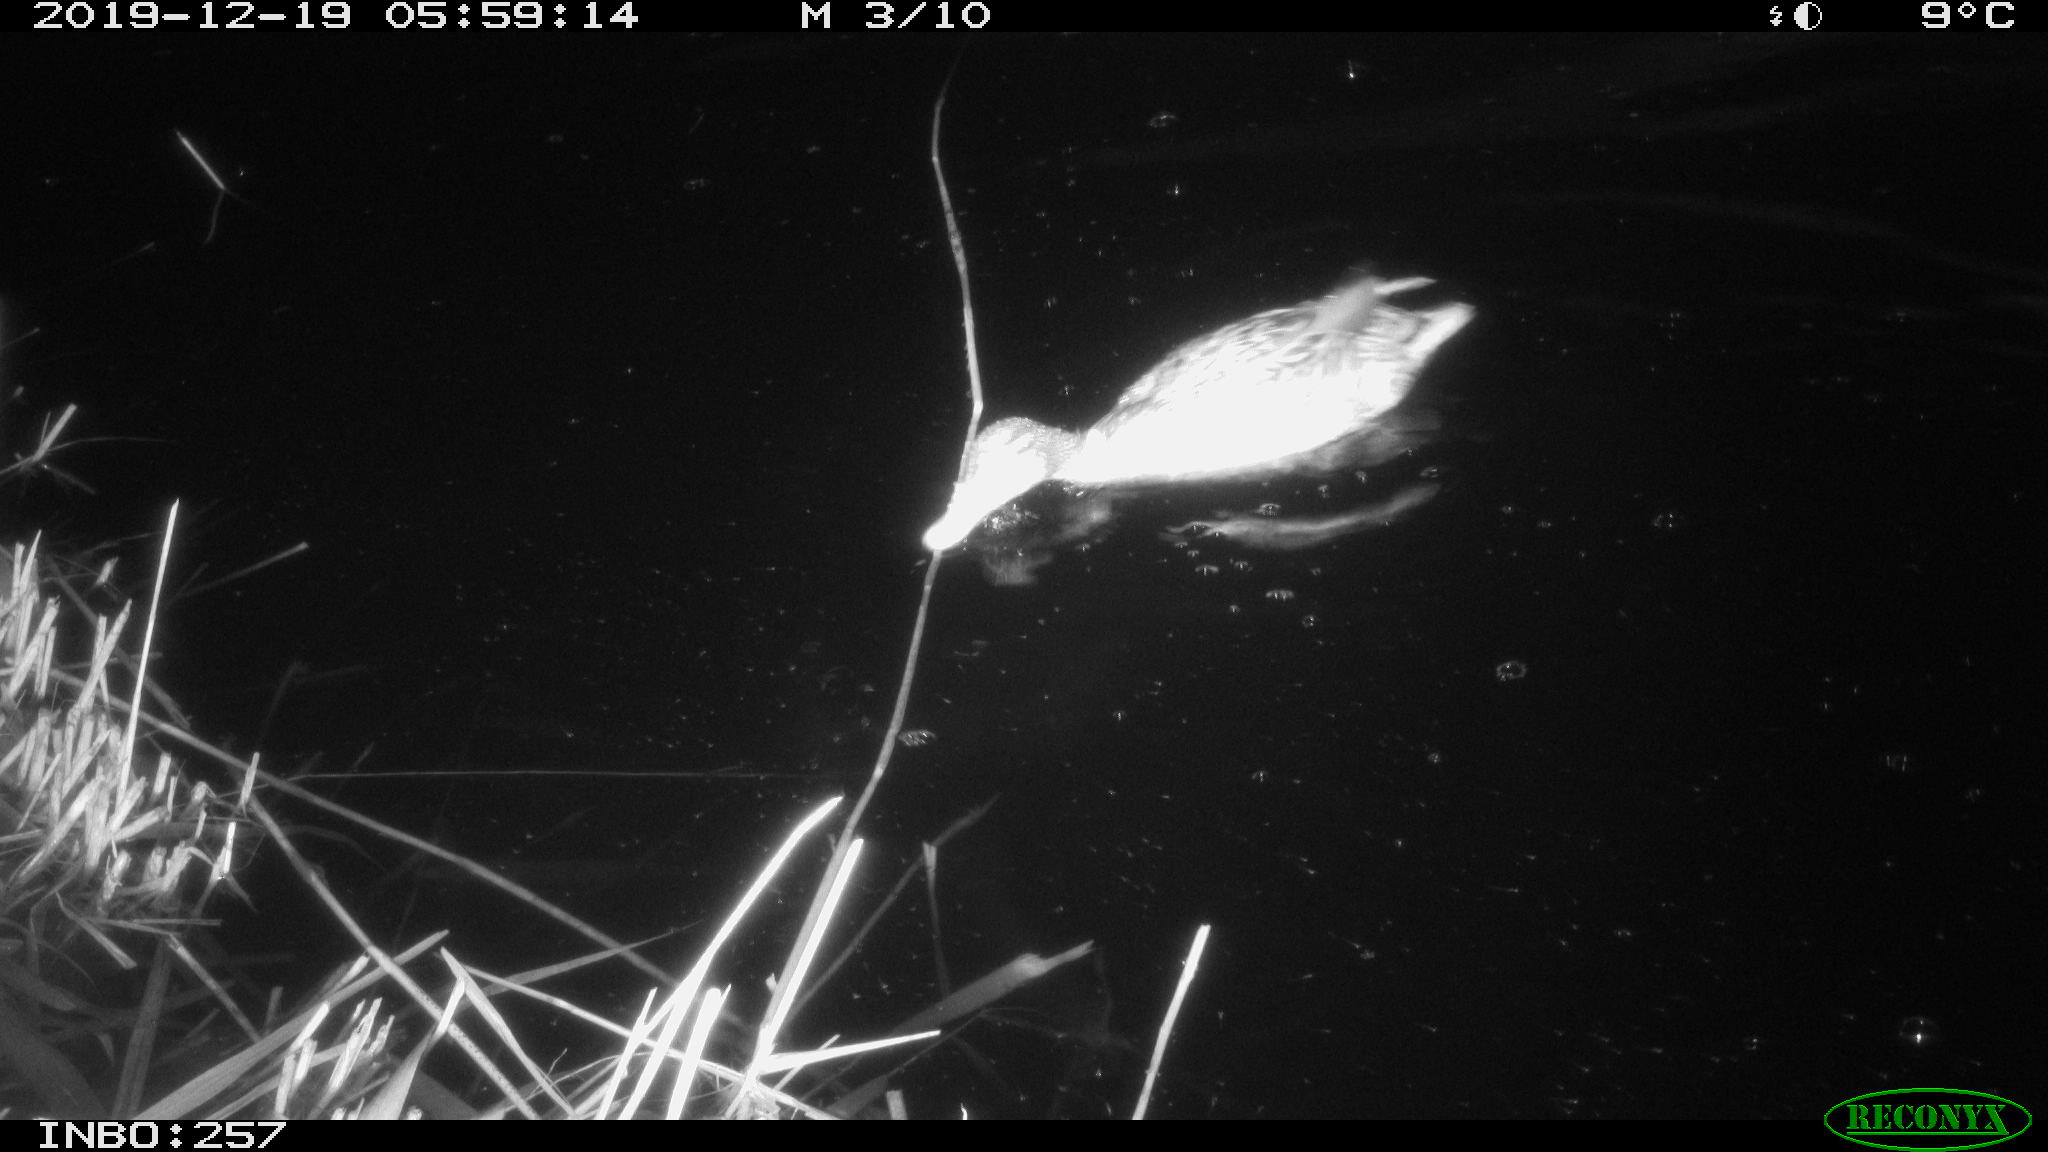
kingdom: Animalia
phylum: Chordata
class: Aves
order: Anseriformes
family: Anatidae
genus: Anas
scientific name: Anas platyrhynchos
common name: Mallard
